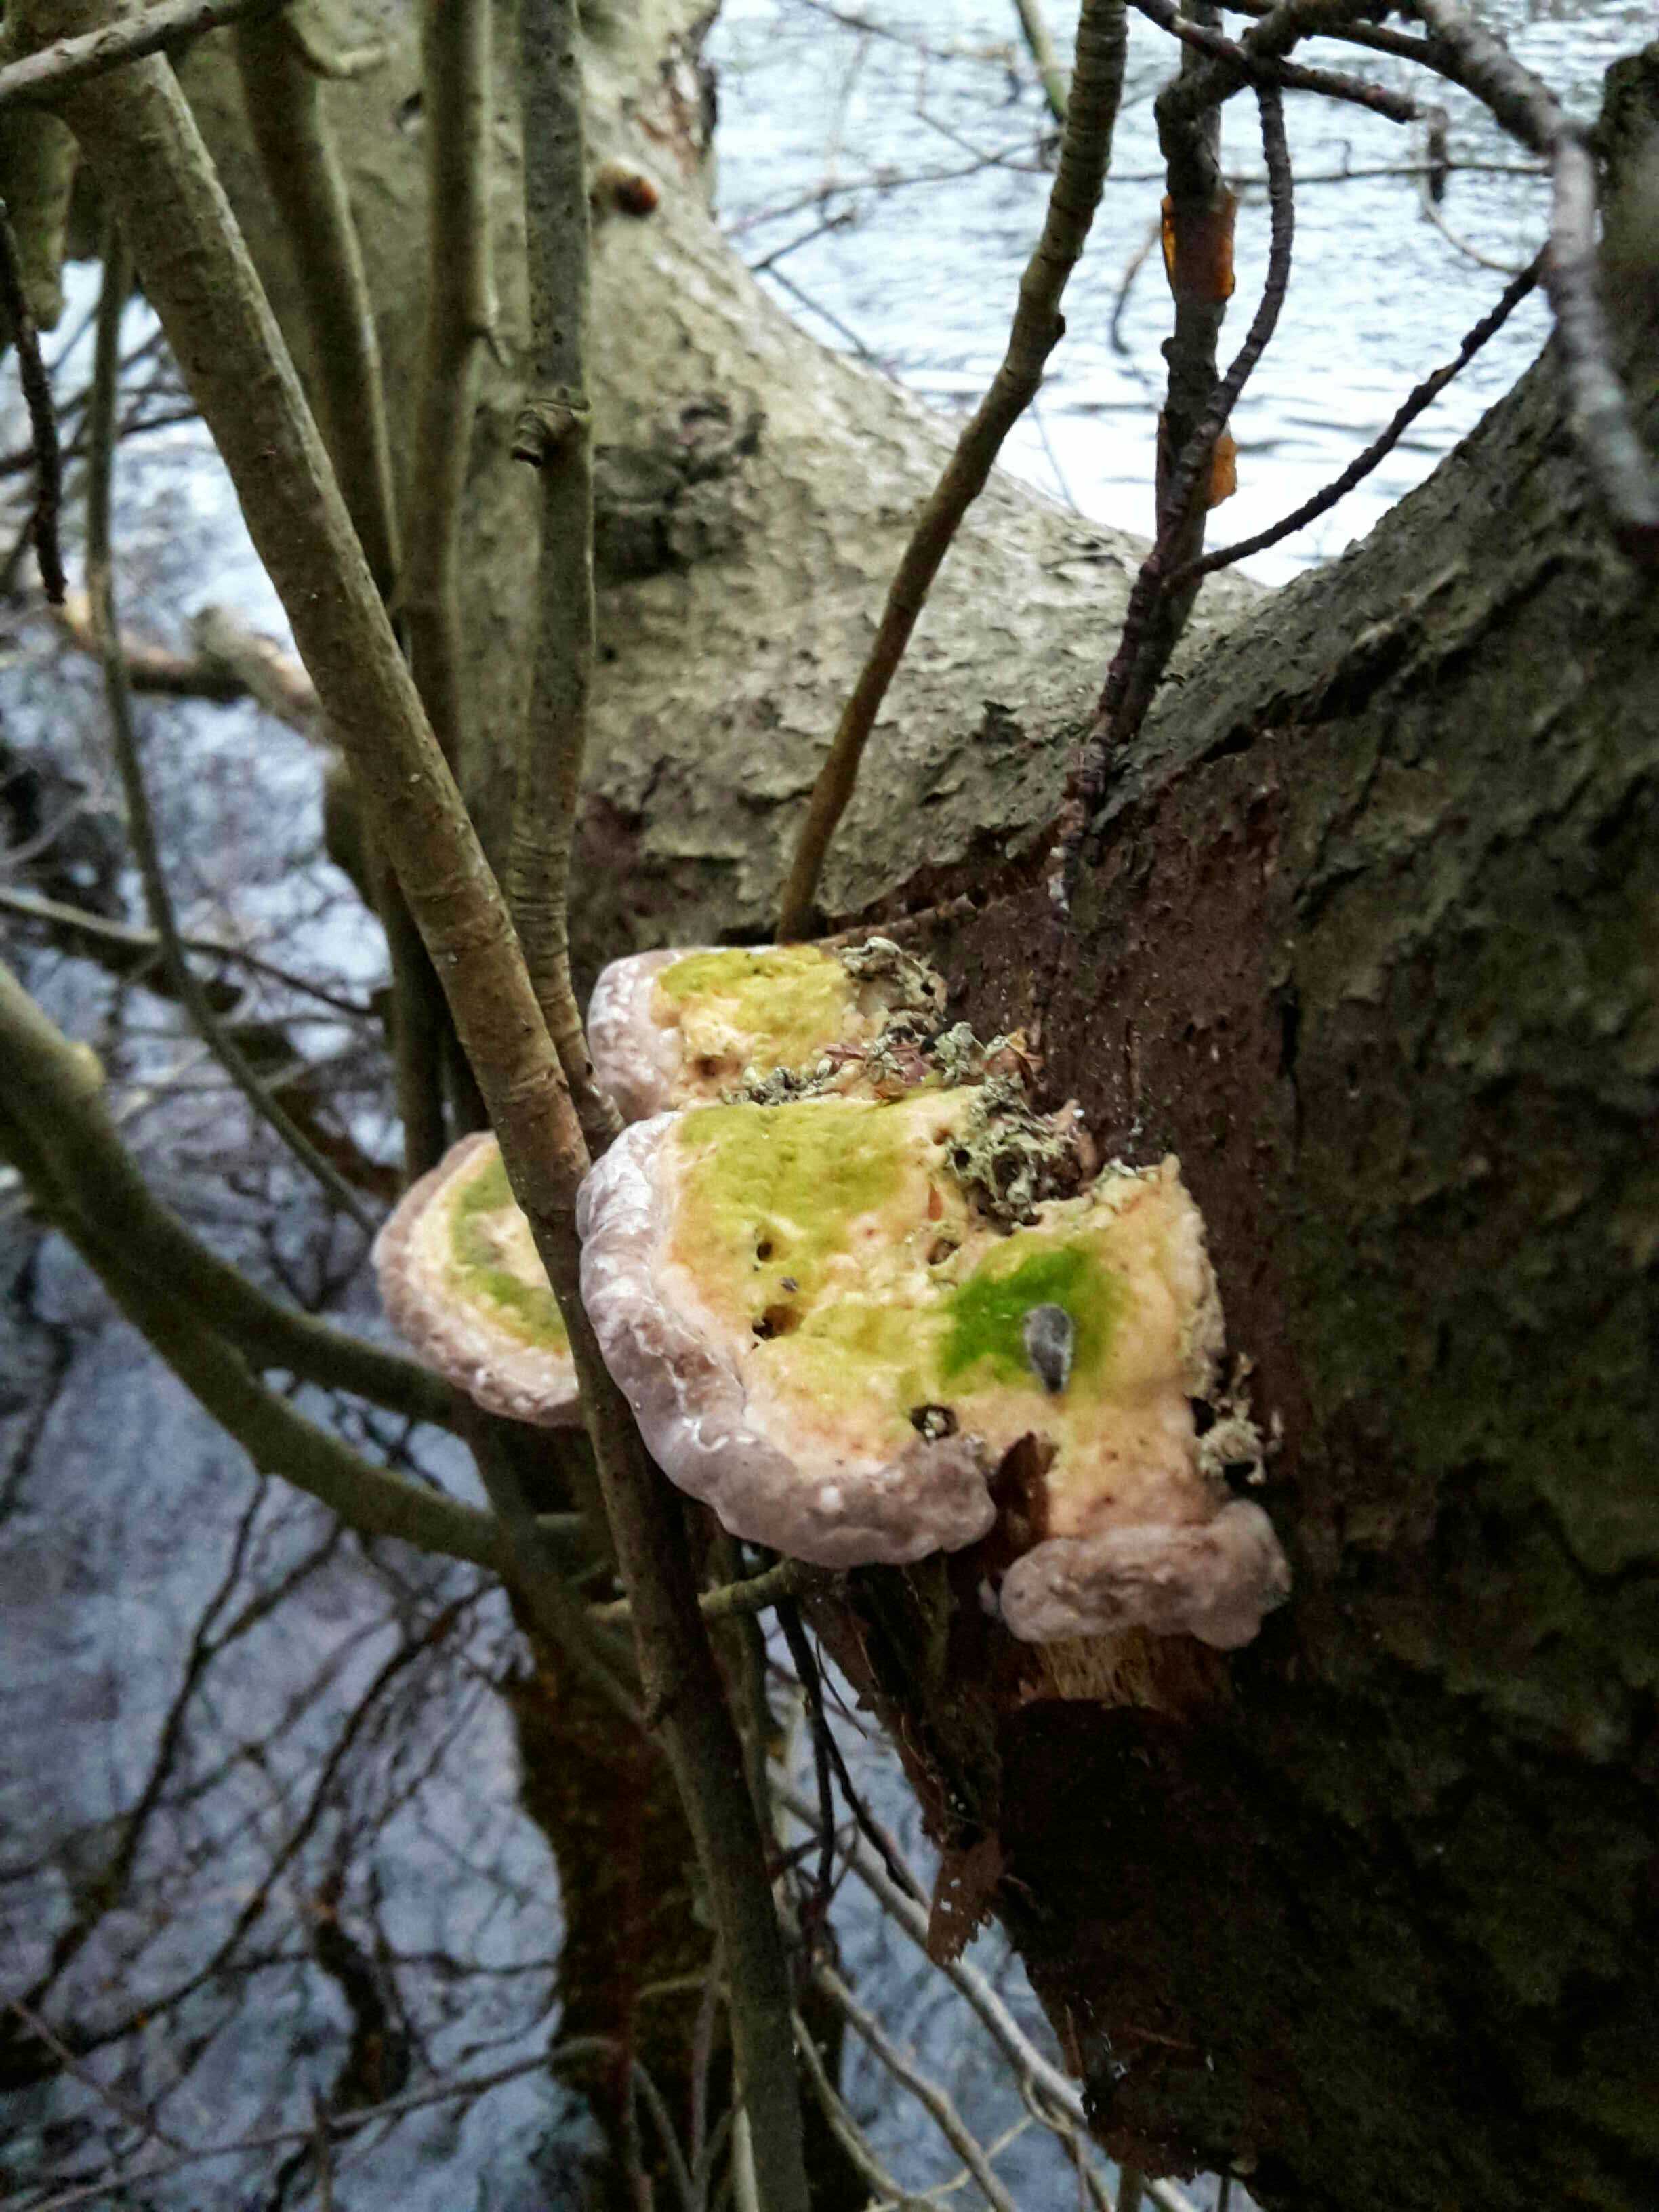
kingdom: Fungi
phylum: Basidiomycota
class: Agaricomycetes
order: Polyporales
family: Polyporaceae
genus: Trametes
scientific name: Trametes gibbosa
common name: puklet læderporesvamp
